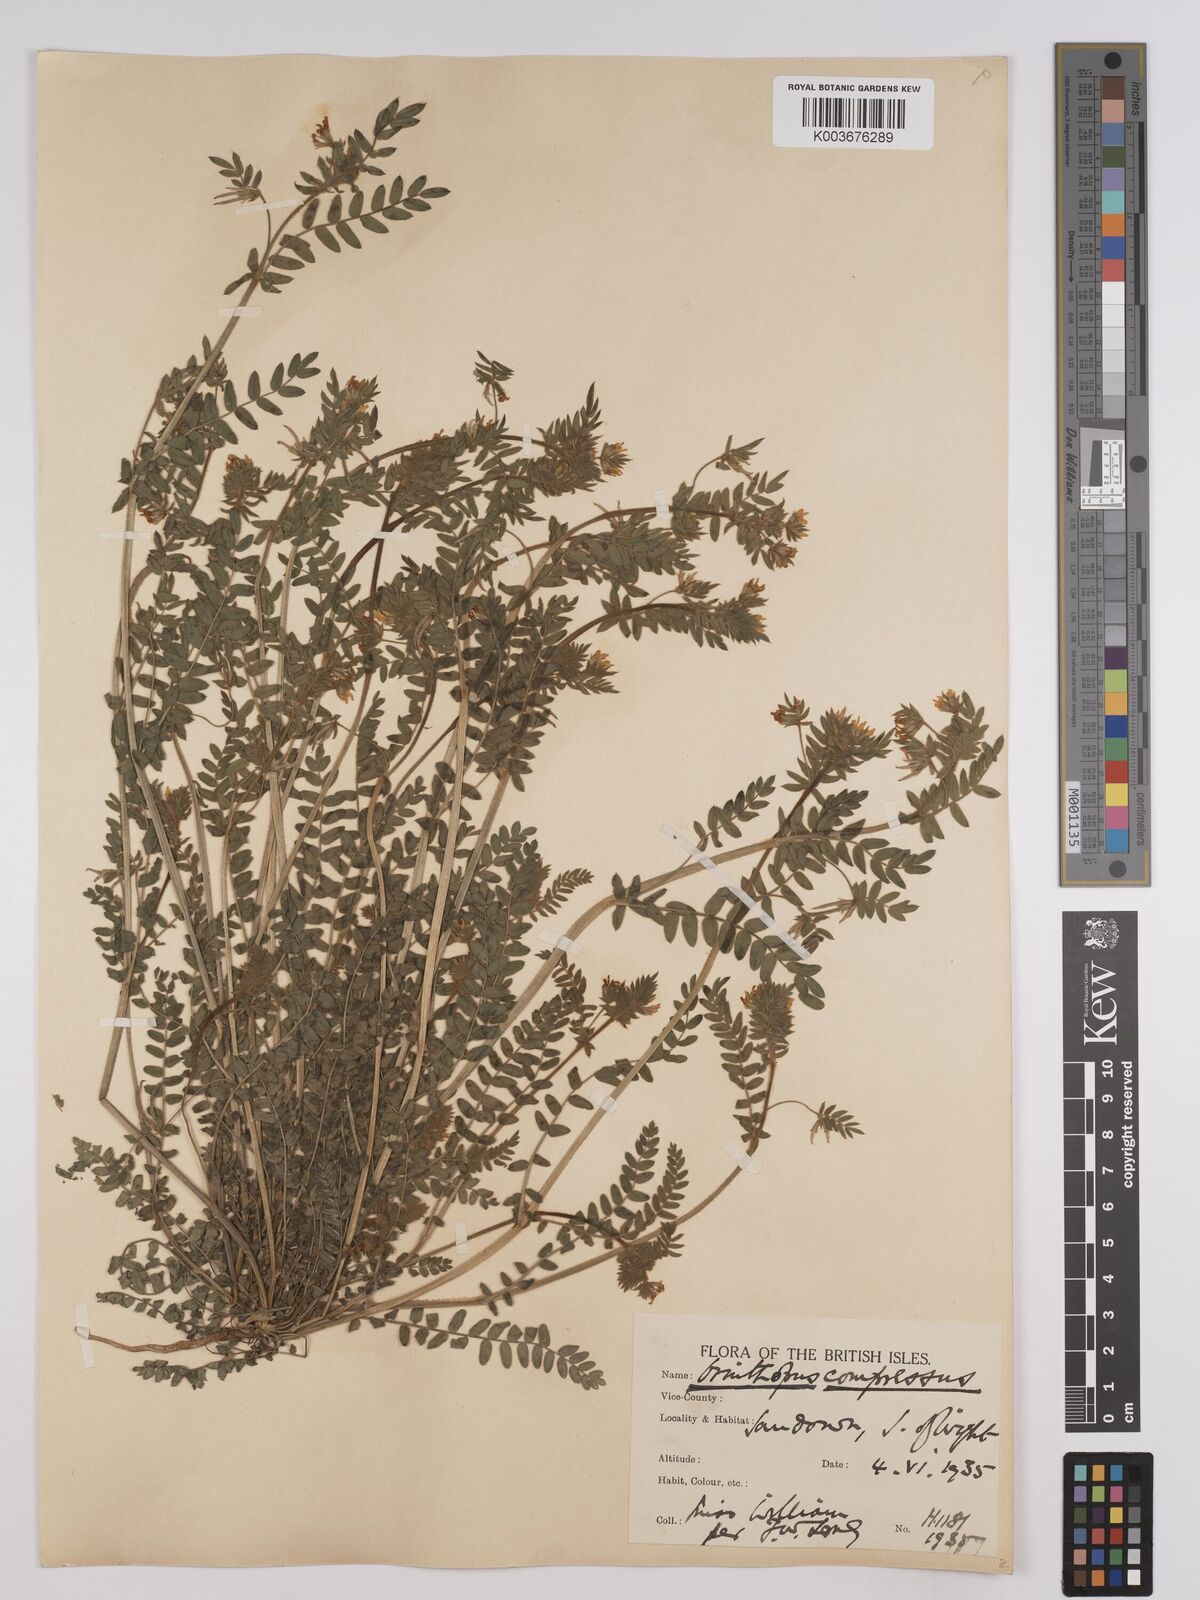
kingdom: Plantae
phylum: Tracheophyta
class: Magnoliopsida
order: Fabales
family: Fabaceae
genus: Ornithopus
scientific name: Ornithopus compressus
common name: Yellow serradella
